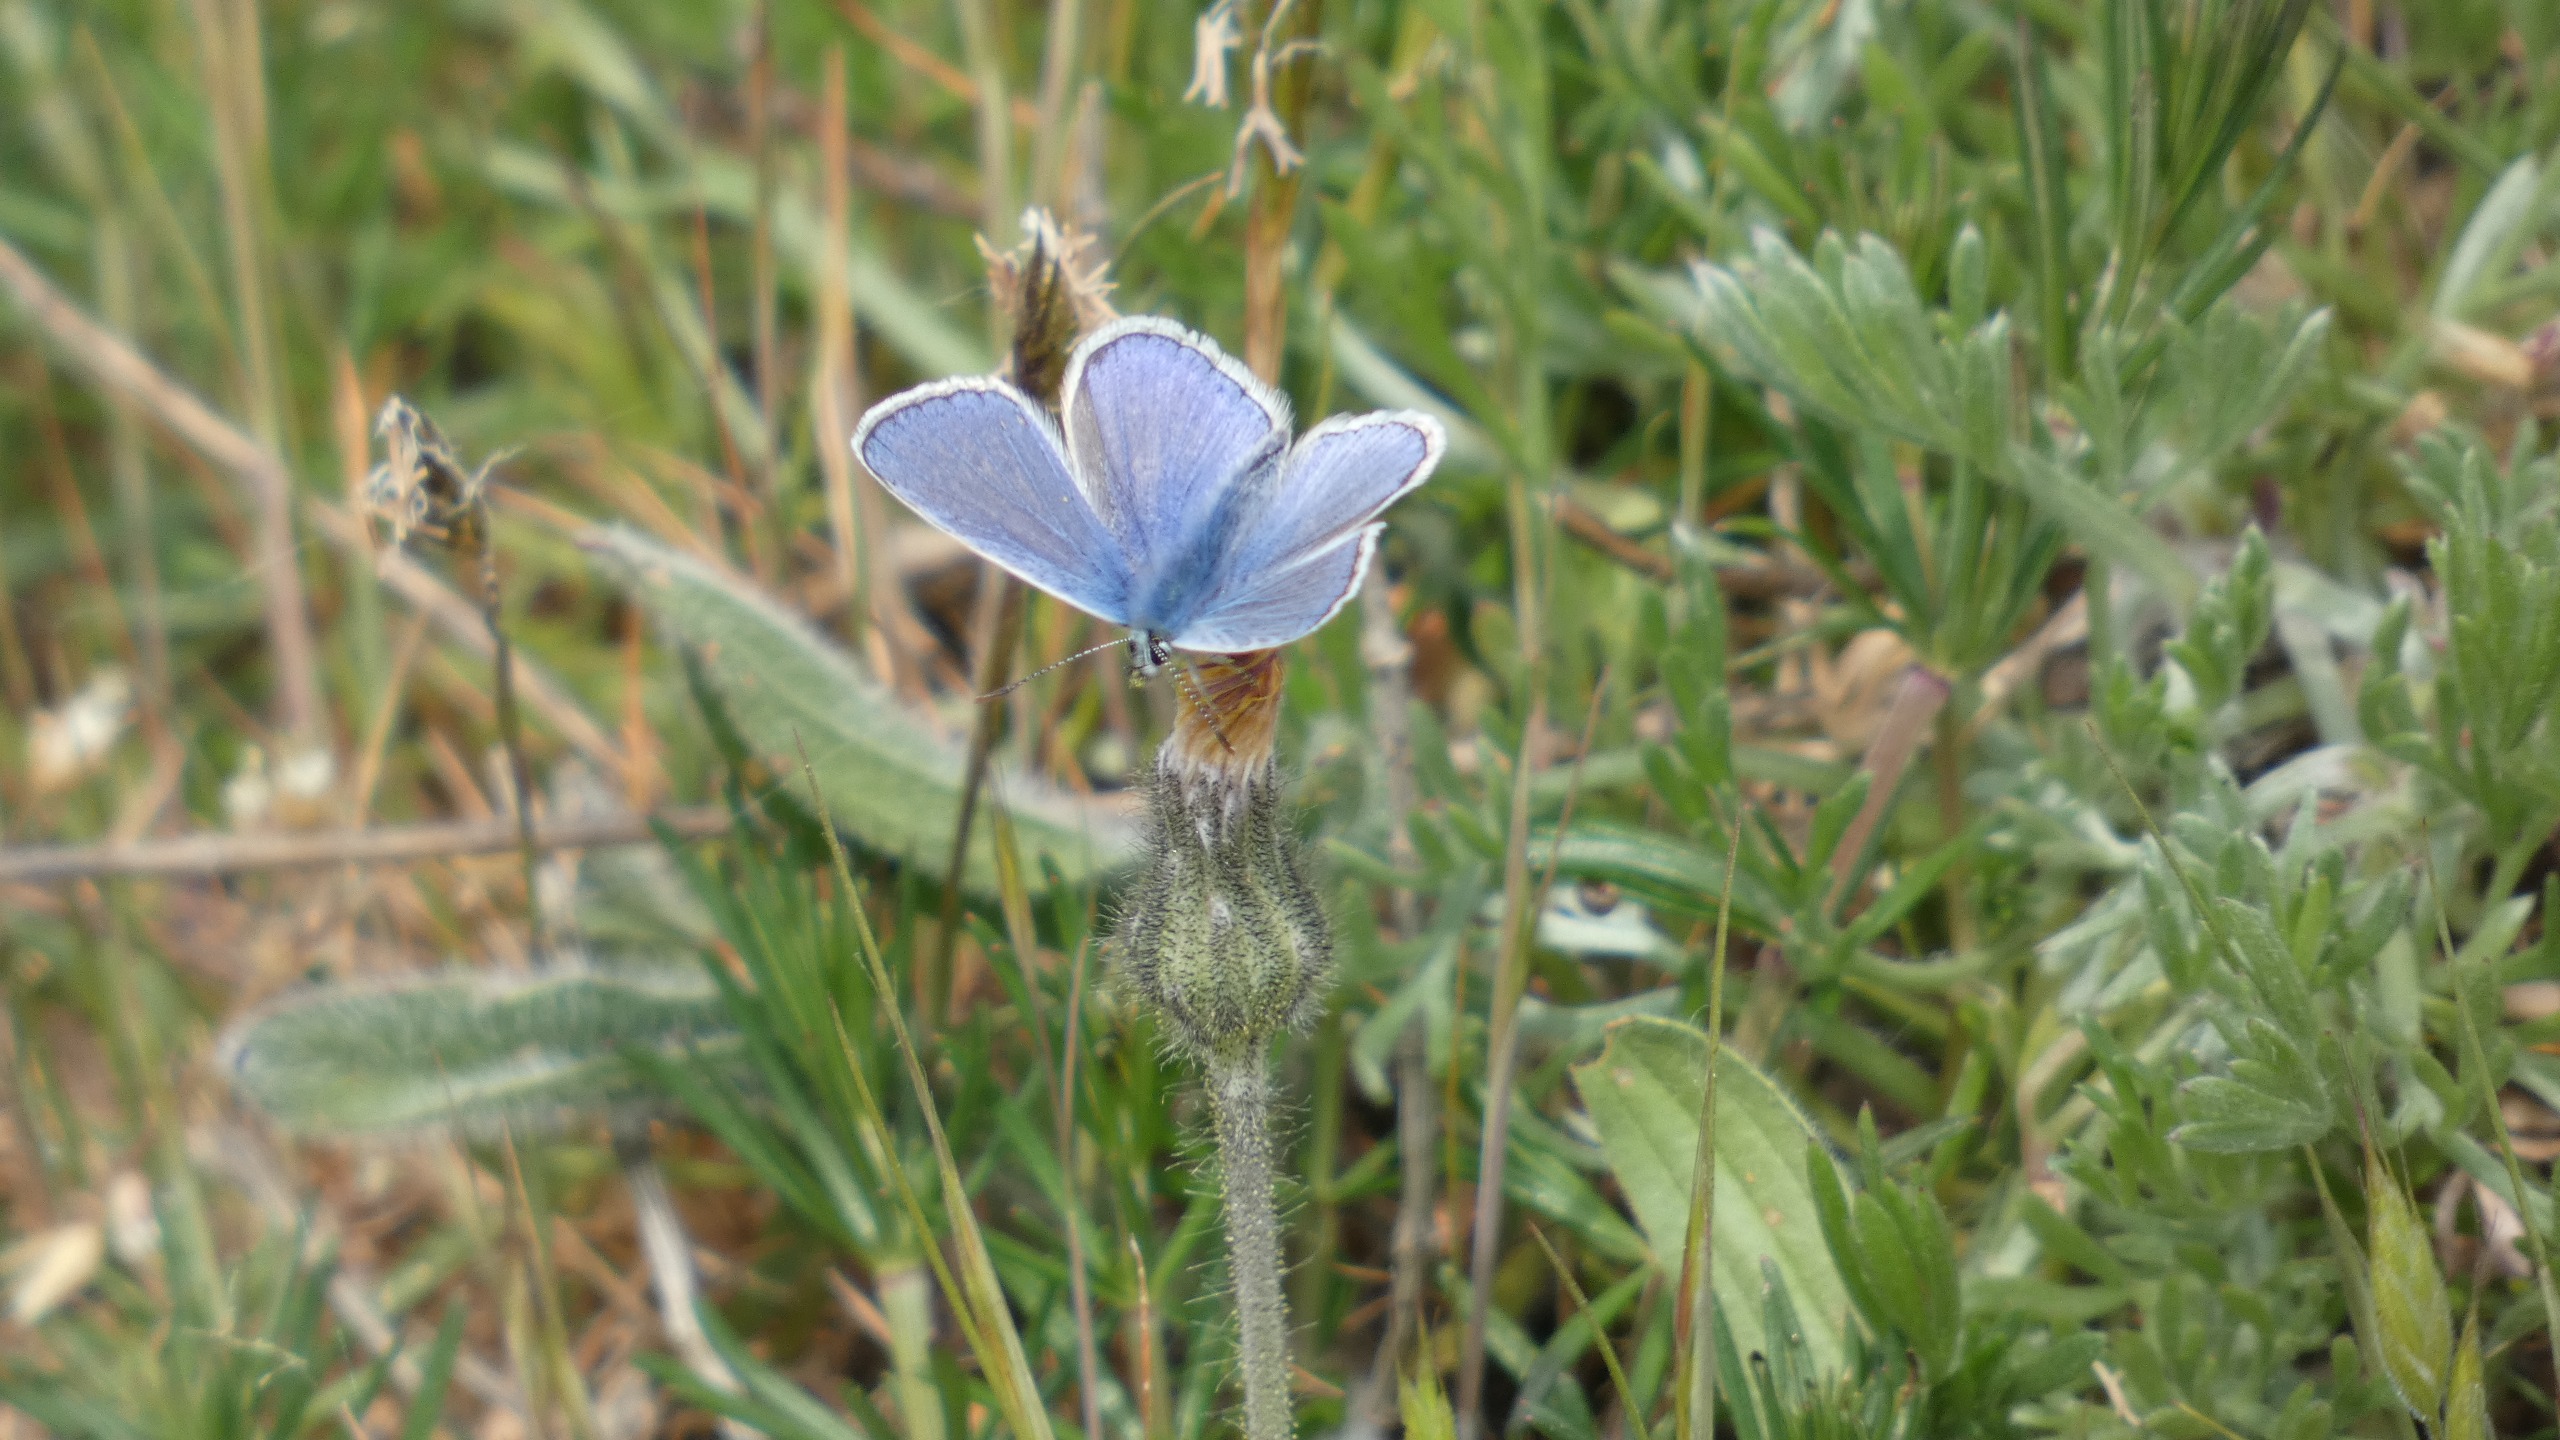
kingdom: Animalia
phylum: Arthropoda
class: Insecta
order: Lepidoptera
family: Lycaenidae
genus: Polyommatus
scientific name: Polyommatus icarus
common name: Almindelig blåfugl
